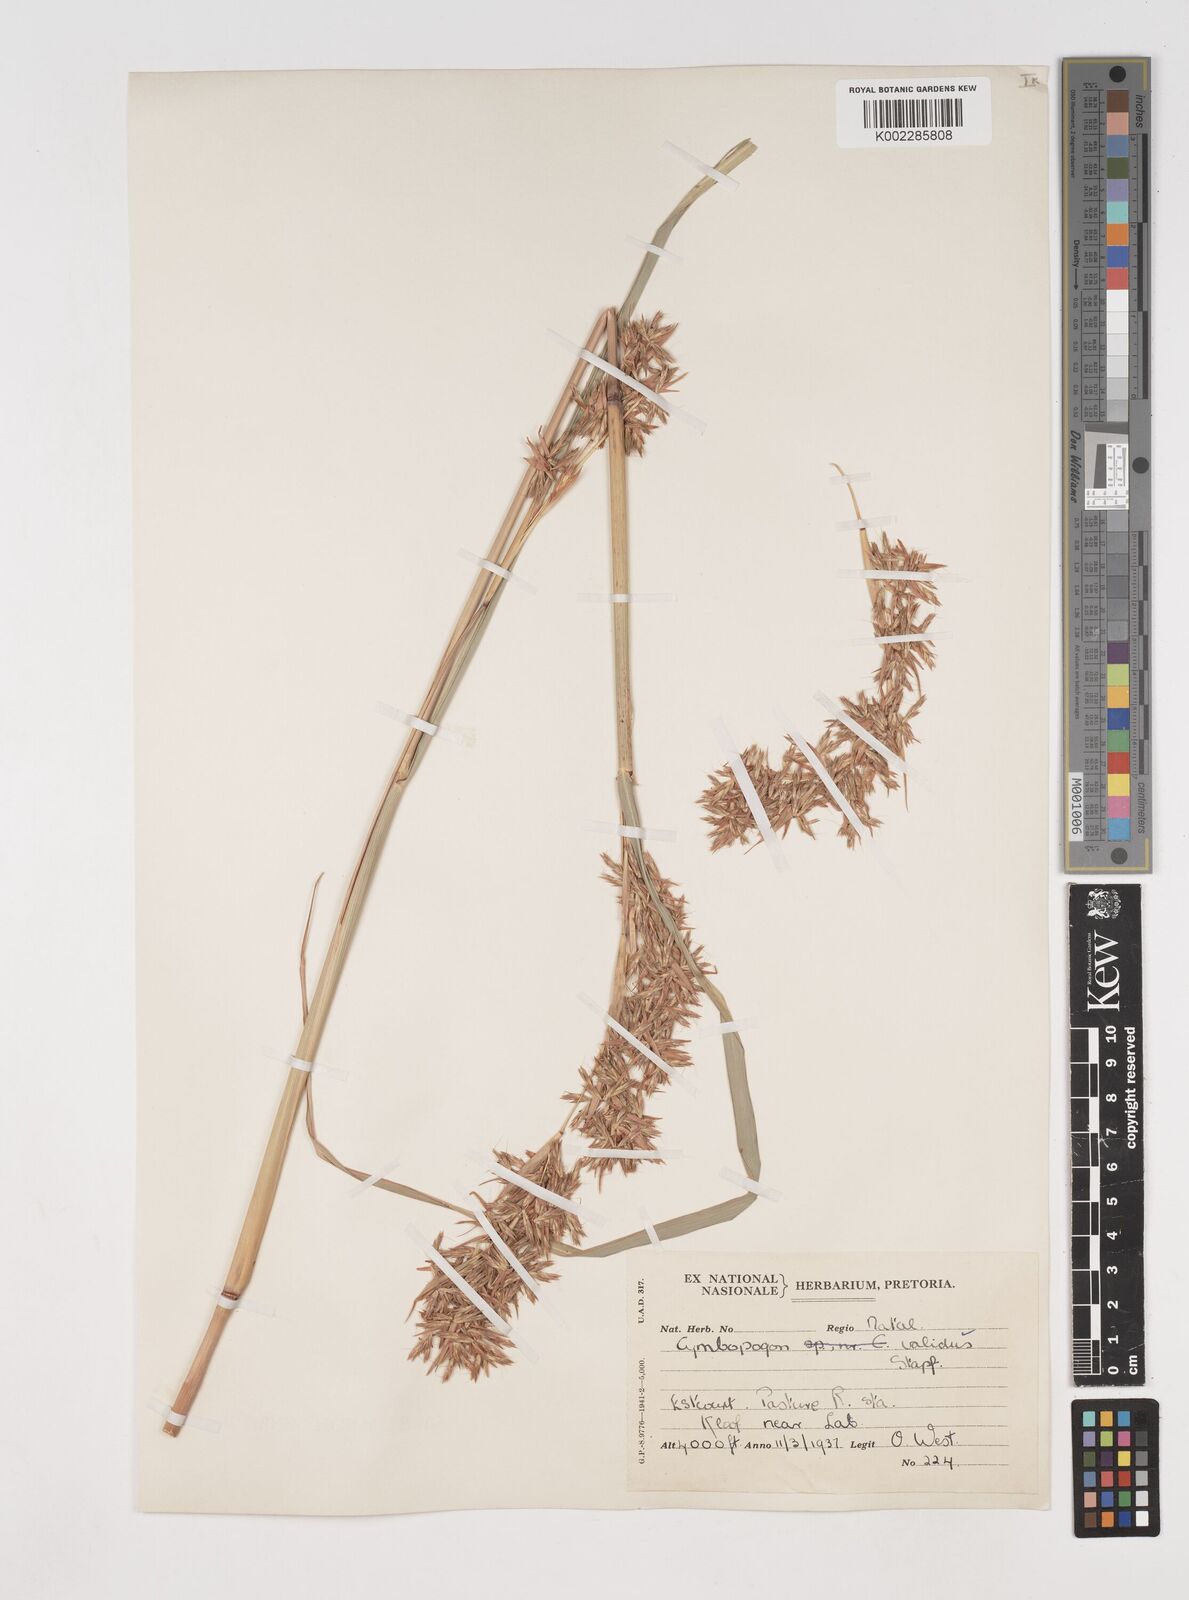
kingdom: Plantae
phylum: Tracheophyta
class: Liliopsida
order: Poales
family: Poaceae
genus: Cymbopogon
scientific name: Cymbopogon nardus
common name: Giant turpentine grass
